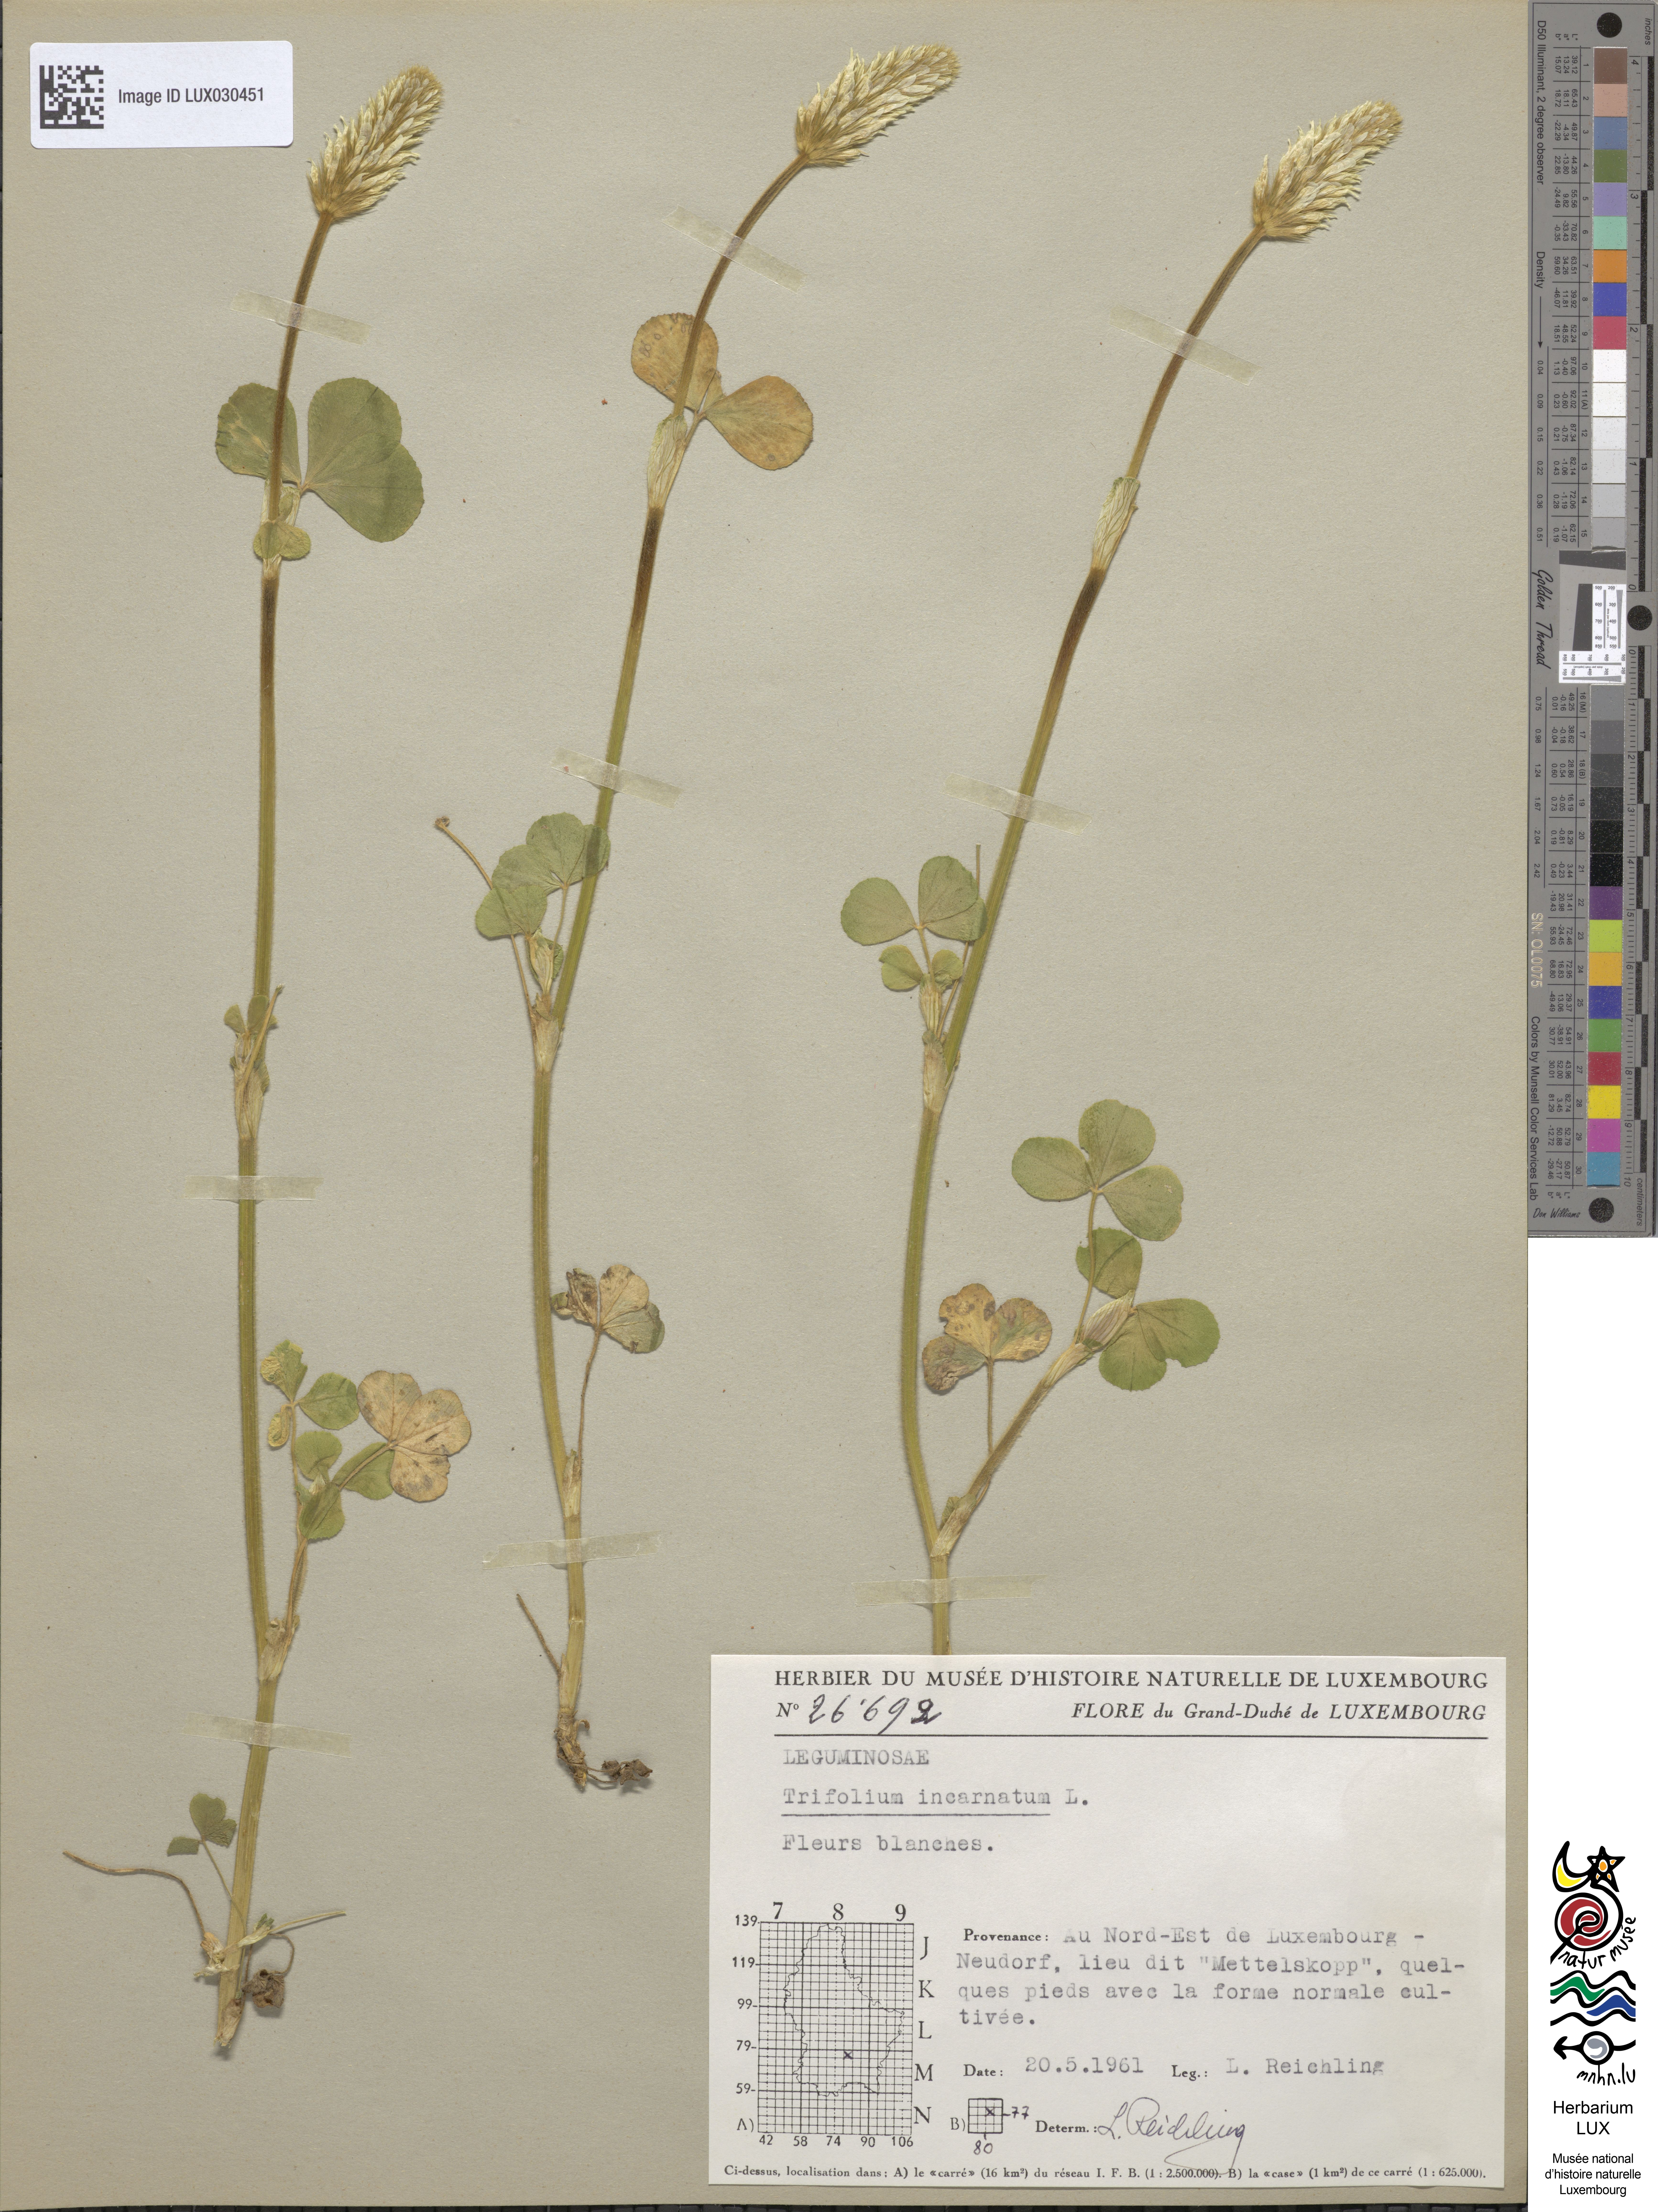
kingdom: Plantae
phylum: Tracheophyta
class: Magnoliopsida
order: Fabales
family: Fabaceae
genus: Trifolium
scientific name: Trifolium incarnatum
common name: Crimson clover
